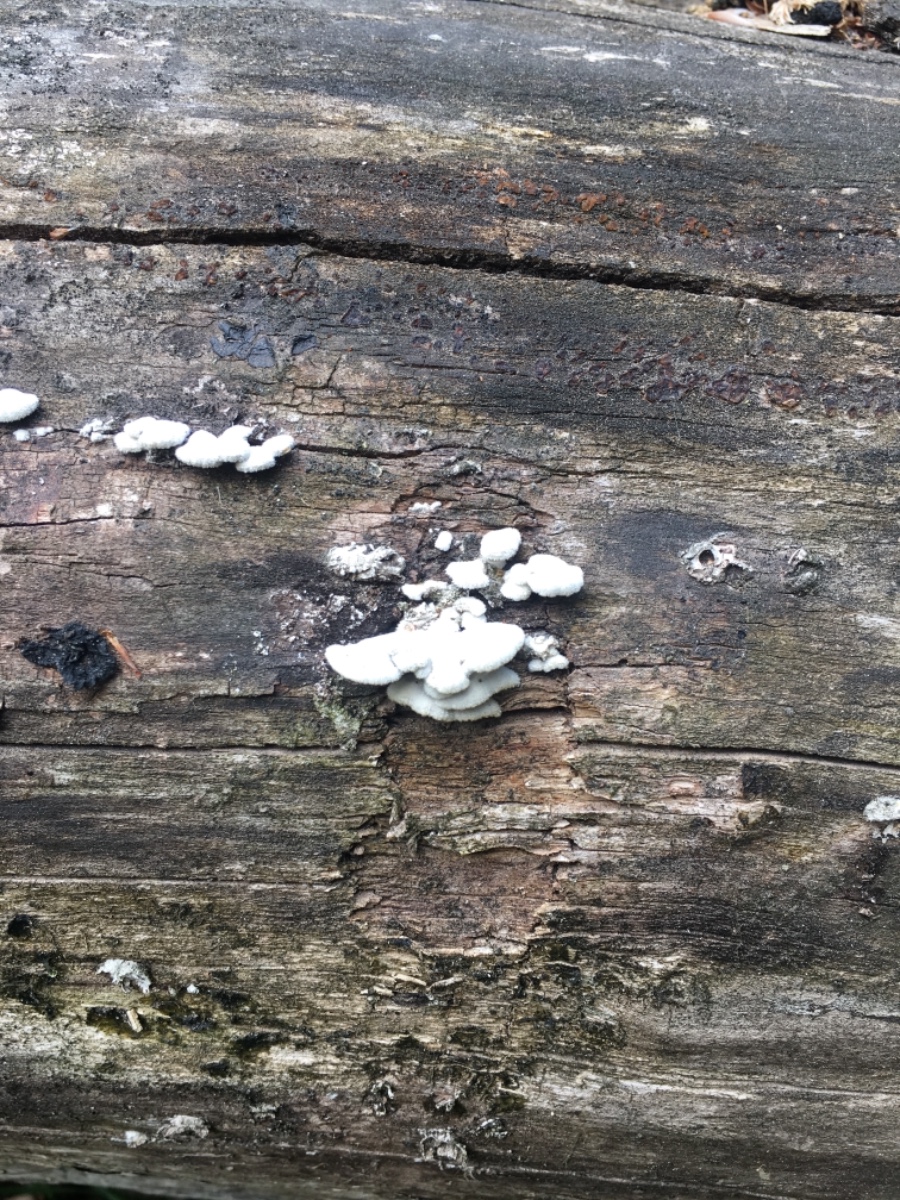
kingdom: Fungi
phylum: Basidiomycota
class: Agaricomycetes
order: Agaricales
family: Schizophyllaceae
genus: Schizophyllum
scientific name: Schizophyllum commune
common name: kløvblad
